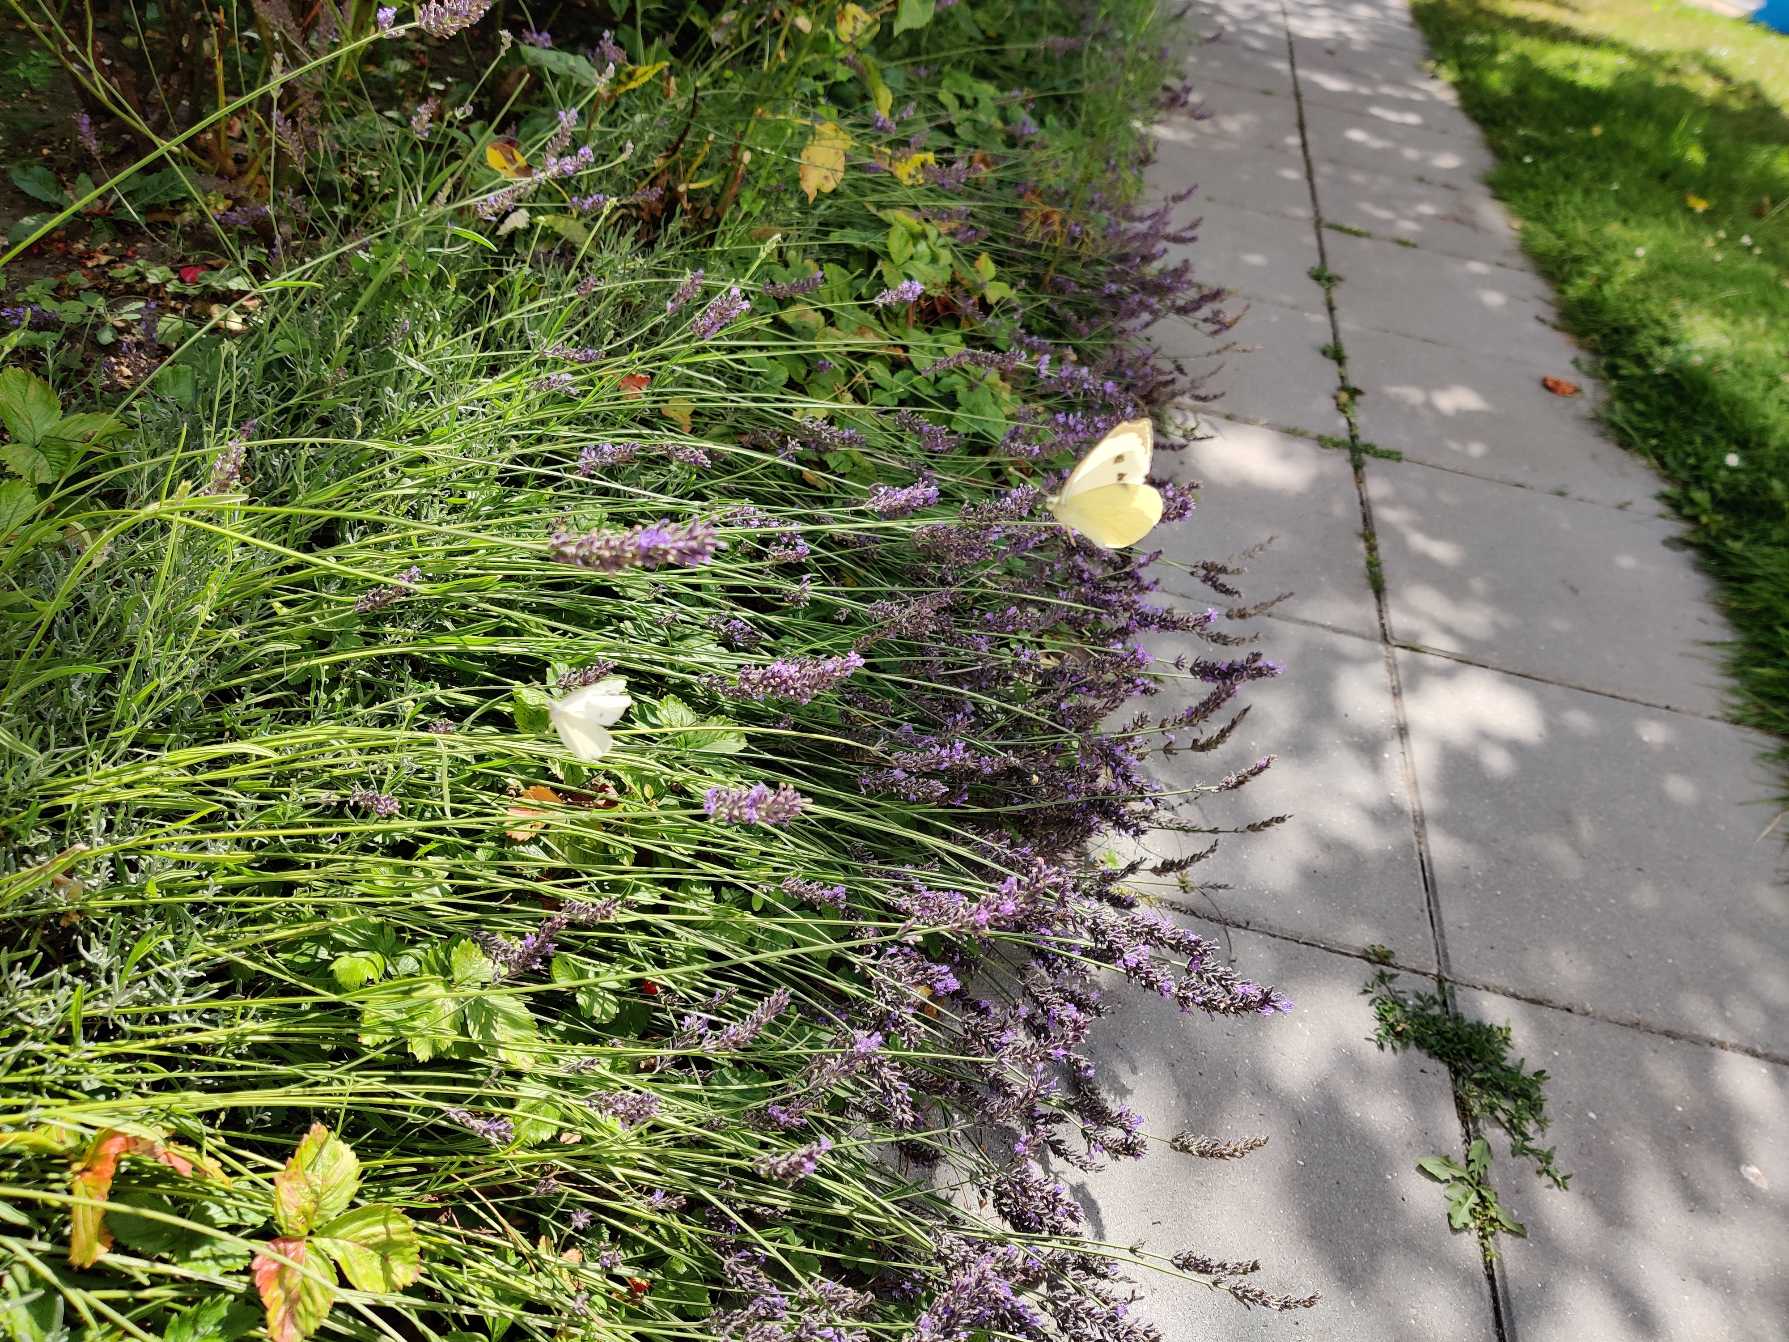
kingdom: Animalia
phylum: Arthropoda
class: Insecta
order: Lepidoptera
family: Pieridae
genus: Pieris
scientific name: Pieris brassicae
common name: Stor kålsommerfugl
